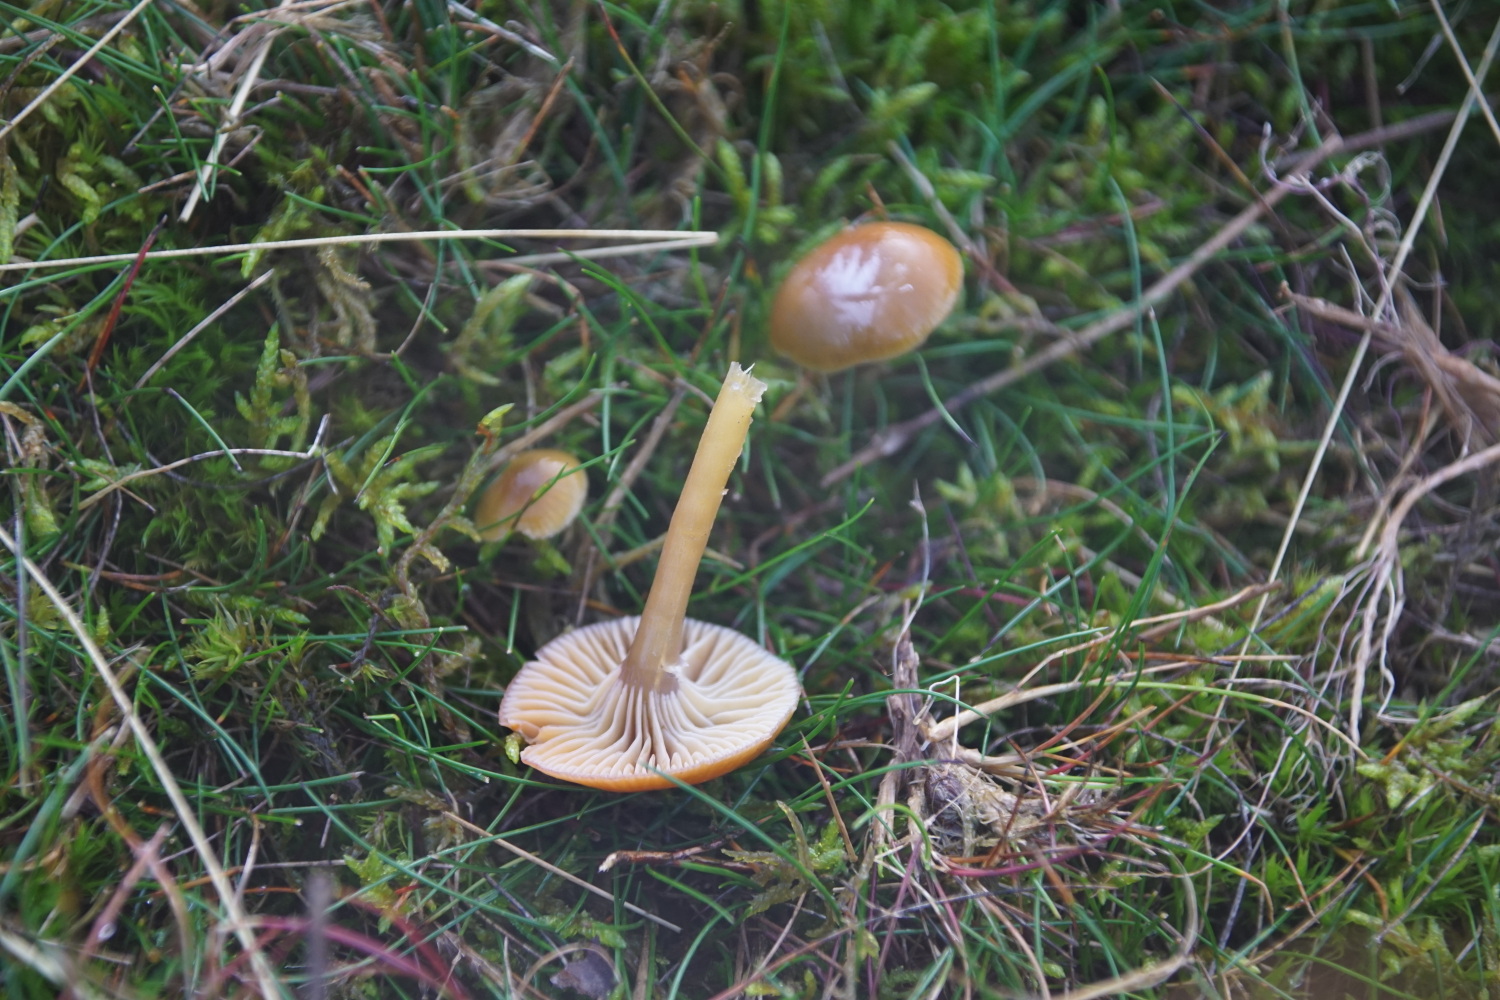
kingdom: Fungi
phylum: Basidiomycota
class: Agaricomycetes
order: Agaricales
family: Hygrophoraceae
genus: Gliophorus
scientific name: Gliophorus laetus
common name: brusk-vokshat
